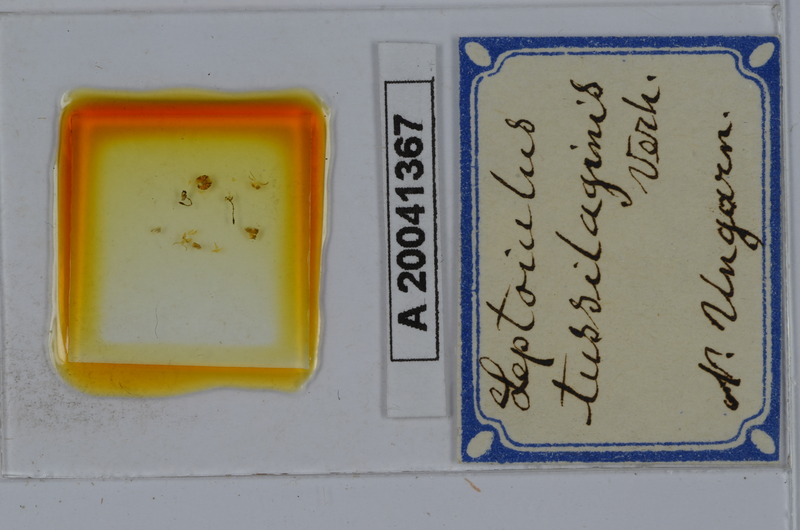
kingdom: Animalia
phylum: Arthropoda
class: Diplopoda
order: Julida
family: Julidae
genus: Leptoiulus
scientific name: Leptoiulus tussilaginis
